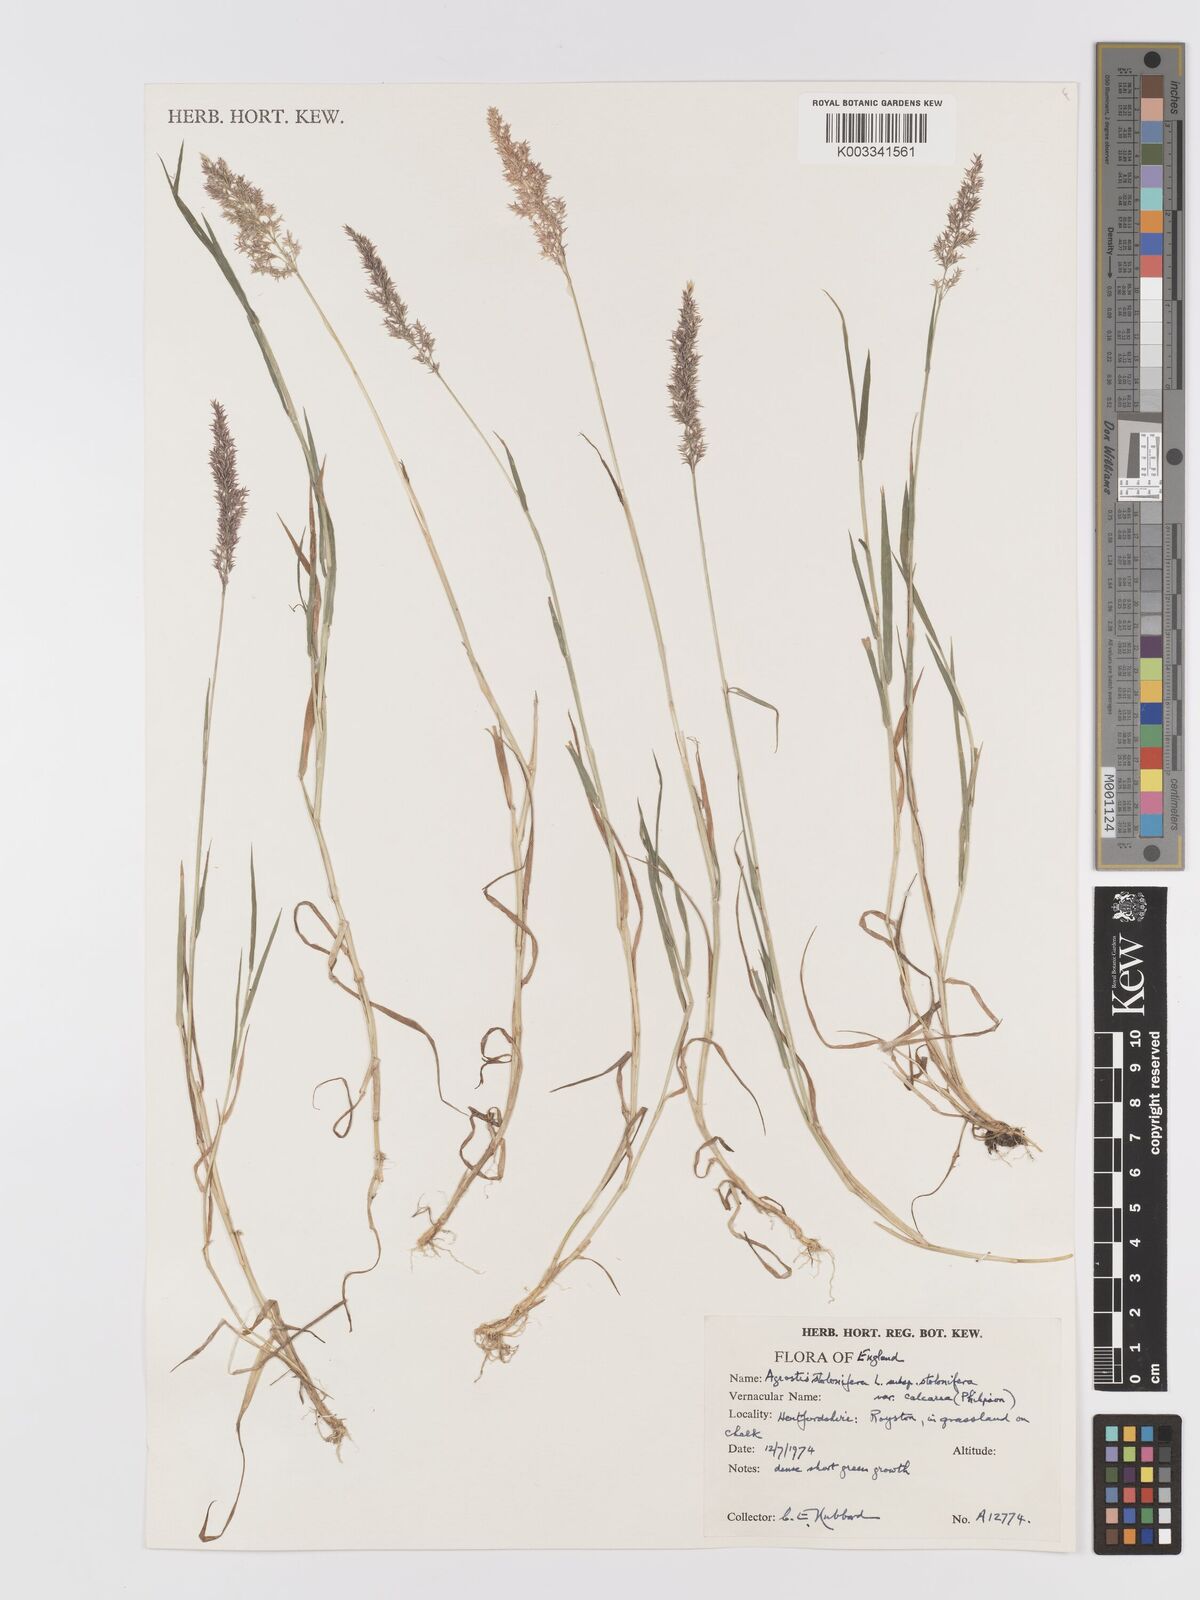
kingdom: Plantae
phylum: Tracheophyta
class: Liliopsida
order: Poales
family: Poaceae
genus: Agrostis
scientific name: Agrostis stolonifera
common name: Creeping bentgrass
